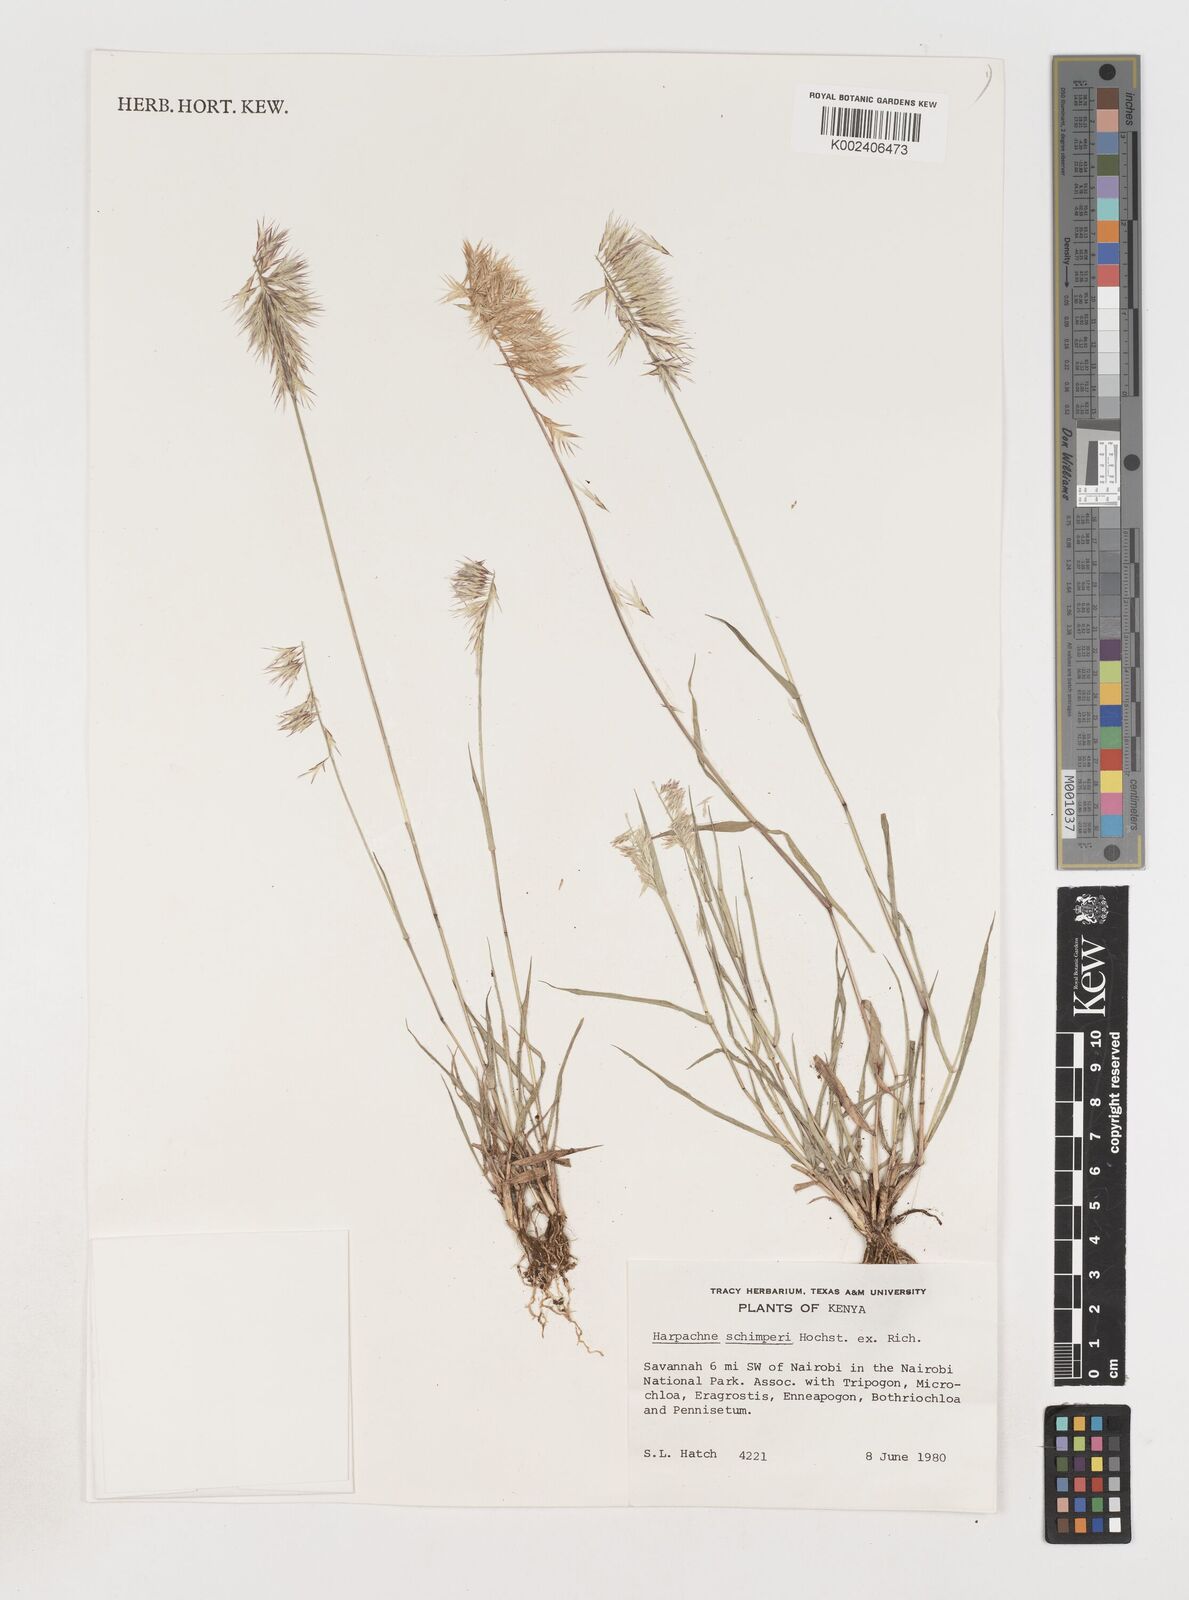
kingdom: Plantae
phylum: Tracheophyta
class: Liliopsida
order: Poales
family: Poaceae
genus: Harpachne
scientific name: Harpachne schimperi
